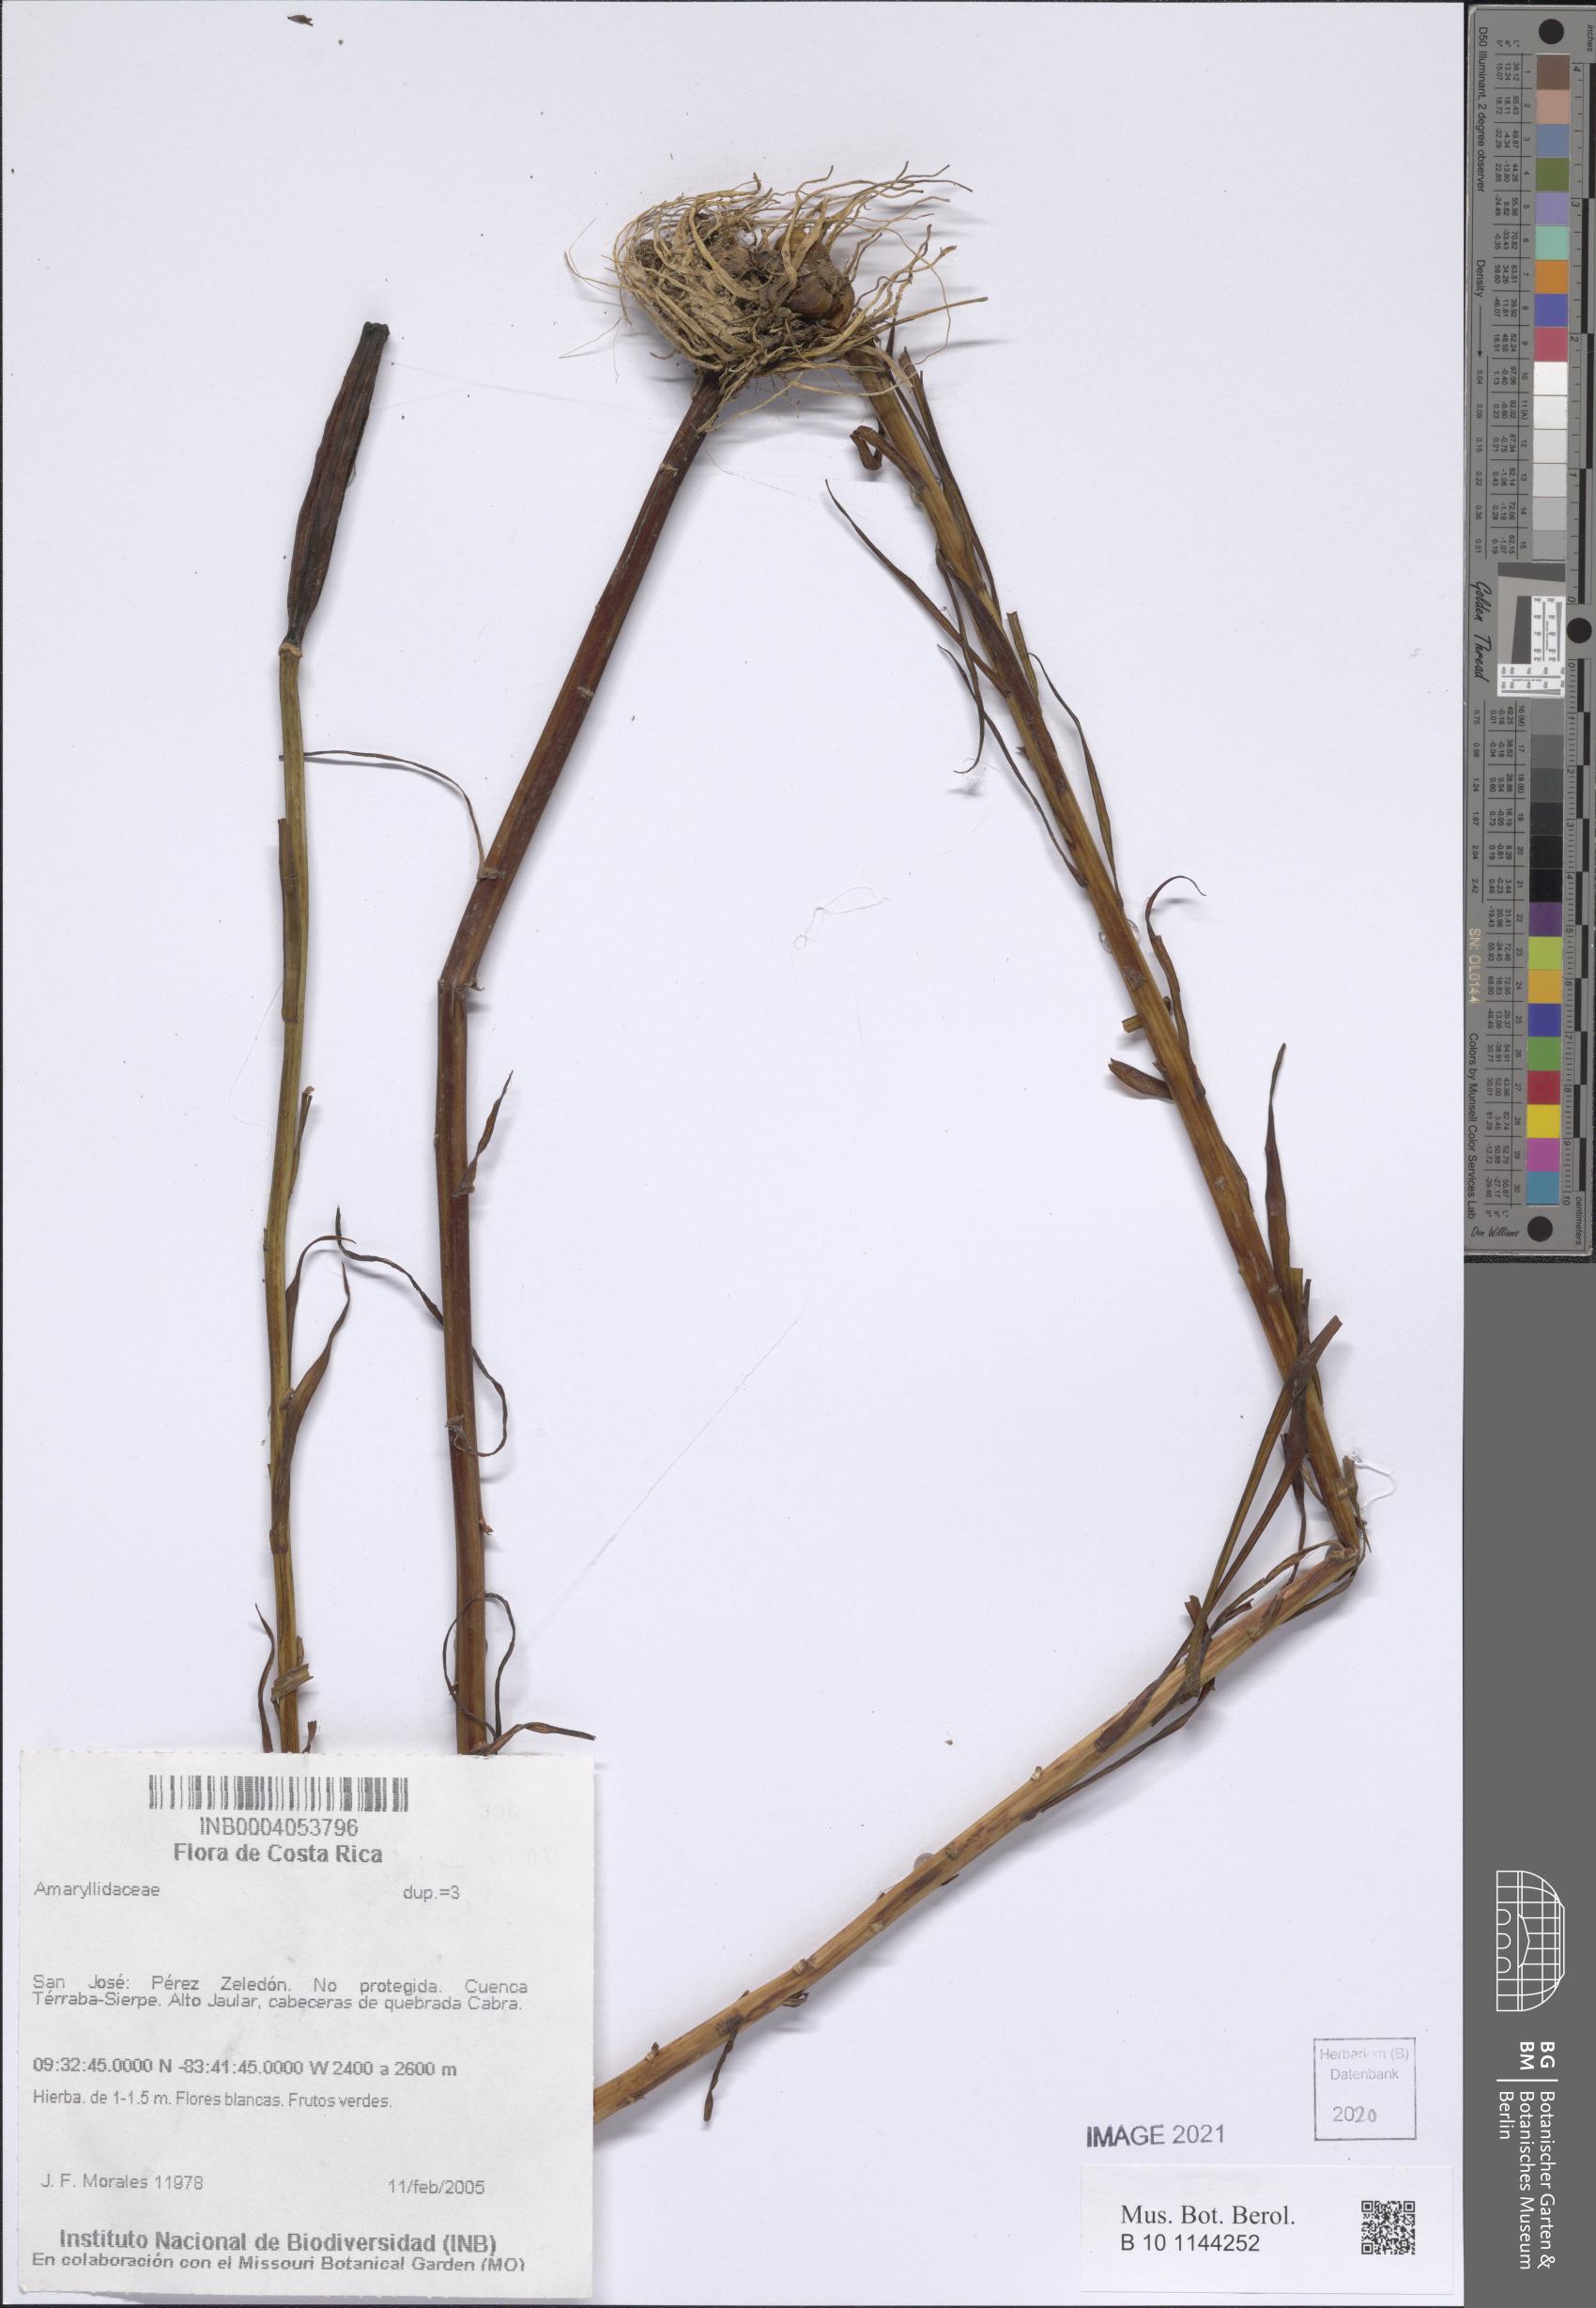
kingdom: Plantae
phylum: Tracheophyta
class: Liliopsida
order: Asparagales
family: Amaryllidaceae
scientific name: Amaryllidaceae
